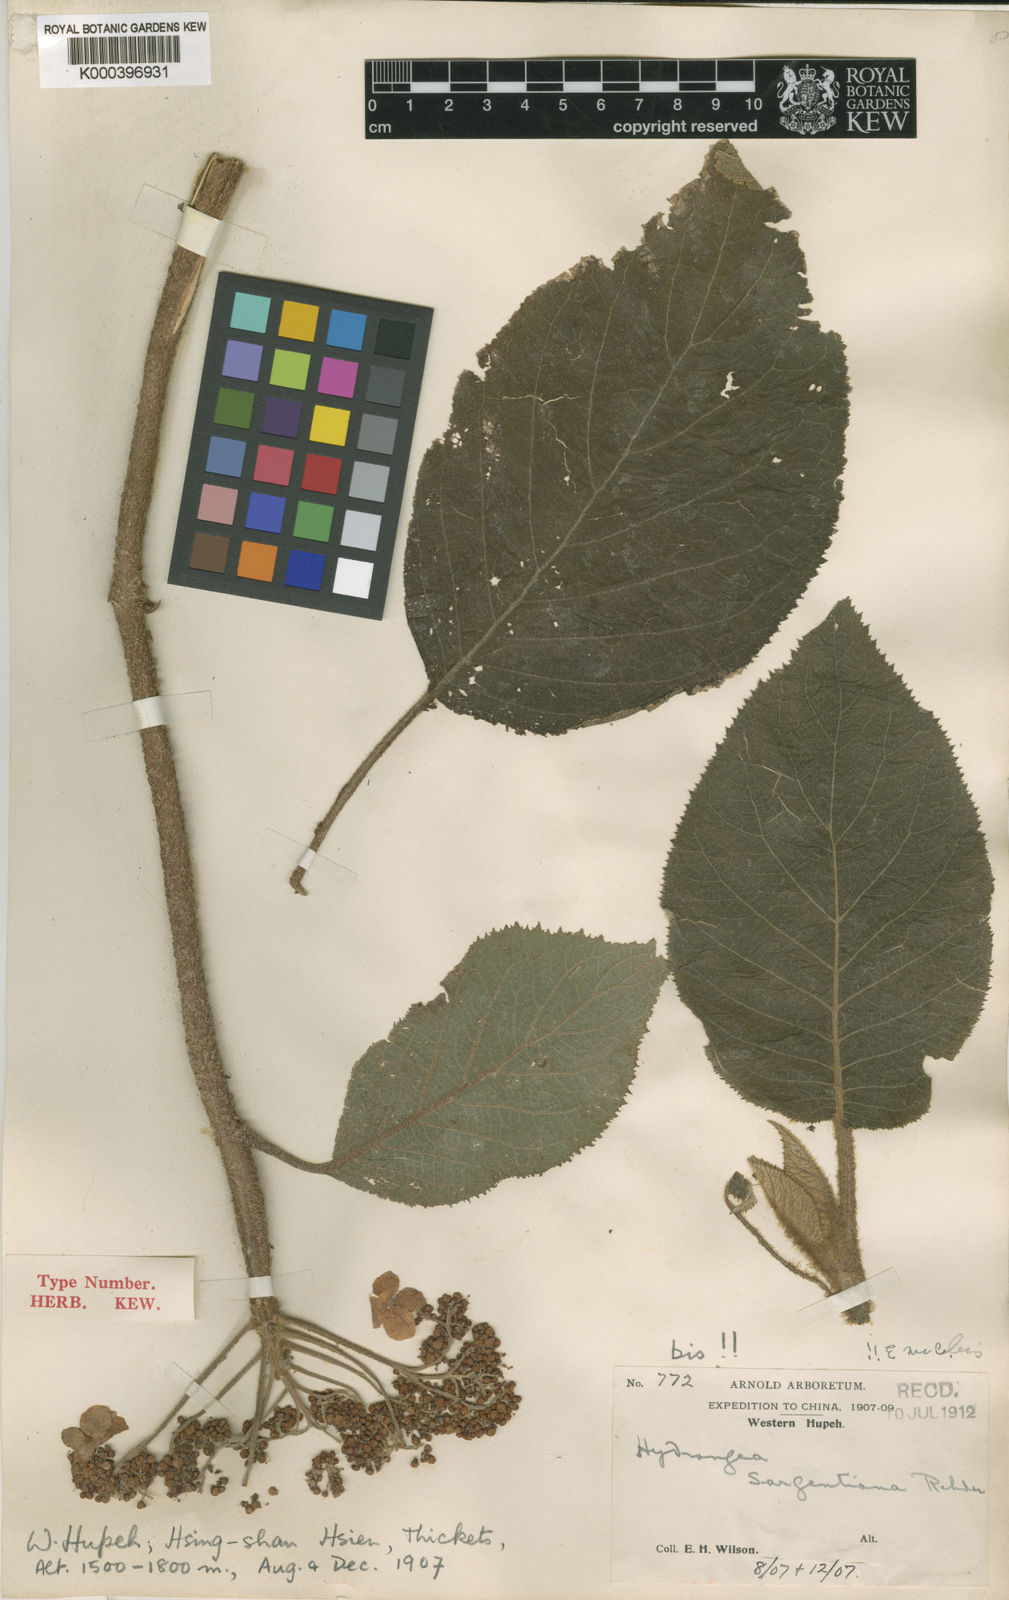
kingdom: Plantae
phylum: Tracheophyta
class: Magnoliopsida
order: Cornales
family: Hydrangeaceae
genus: Hydrangea
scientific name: Hydrangea sargentiana
